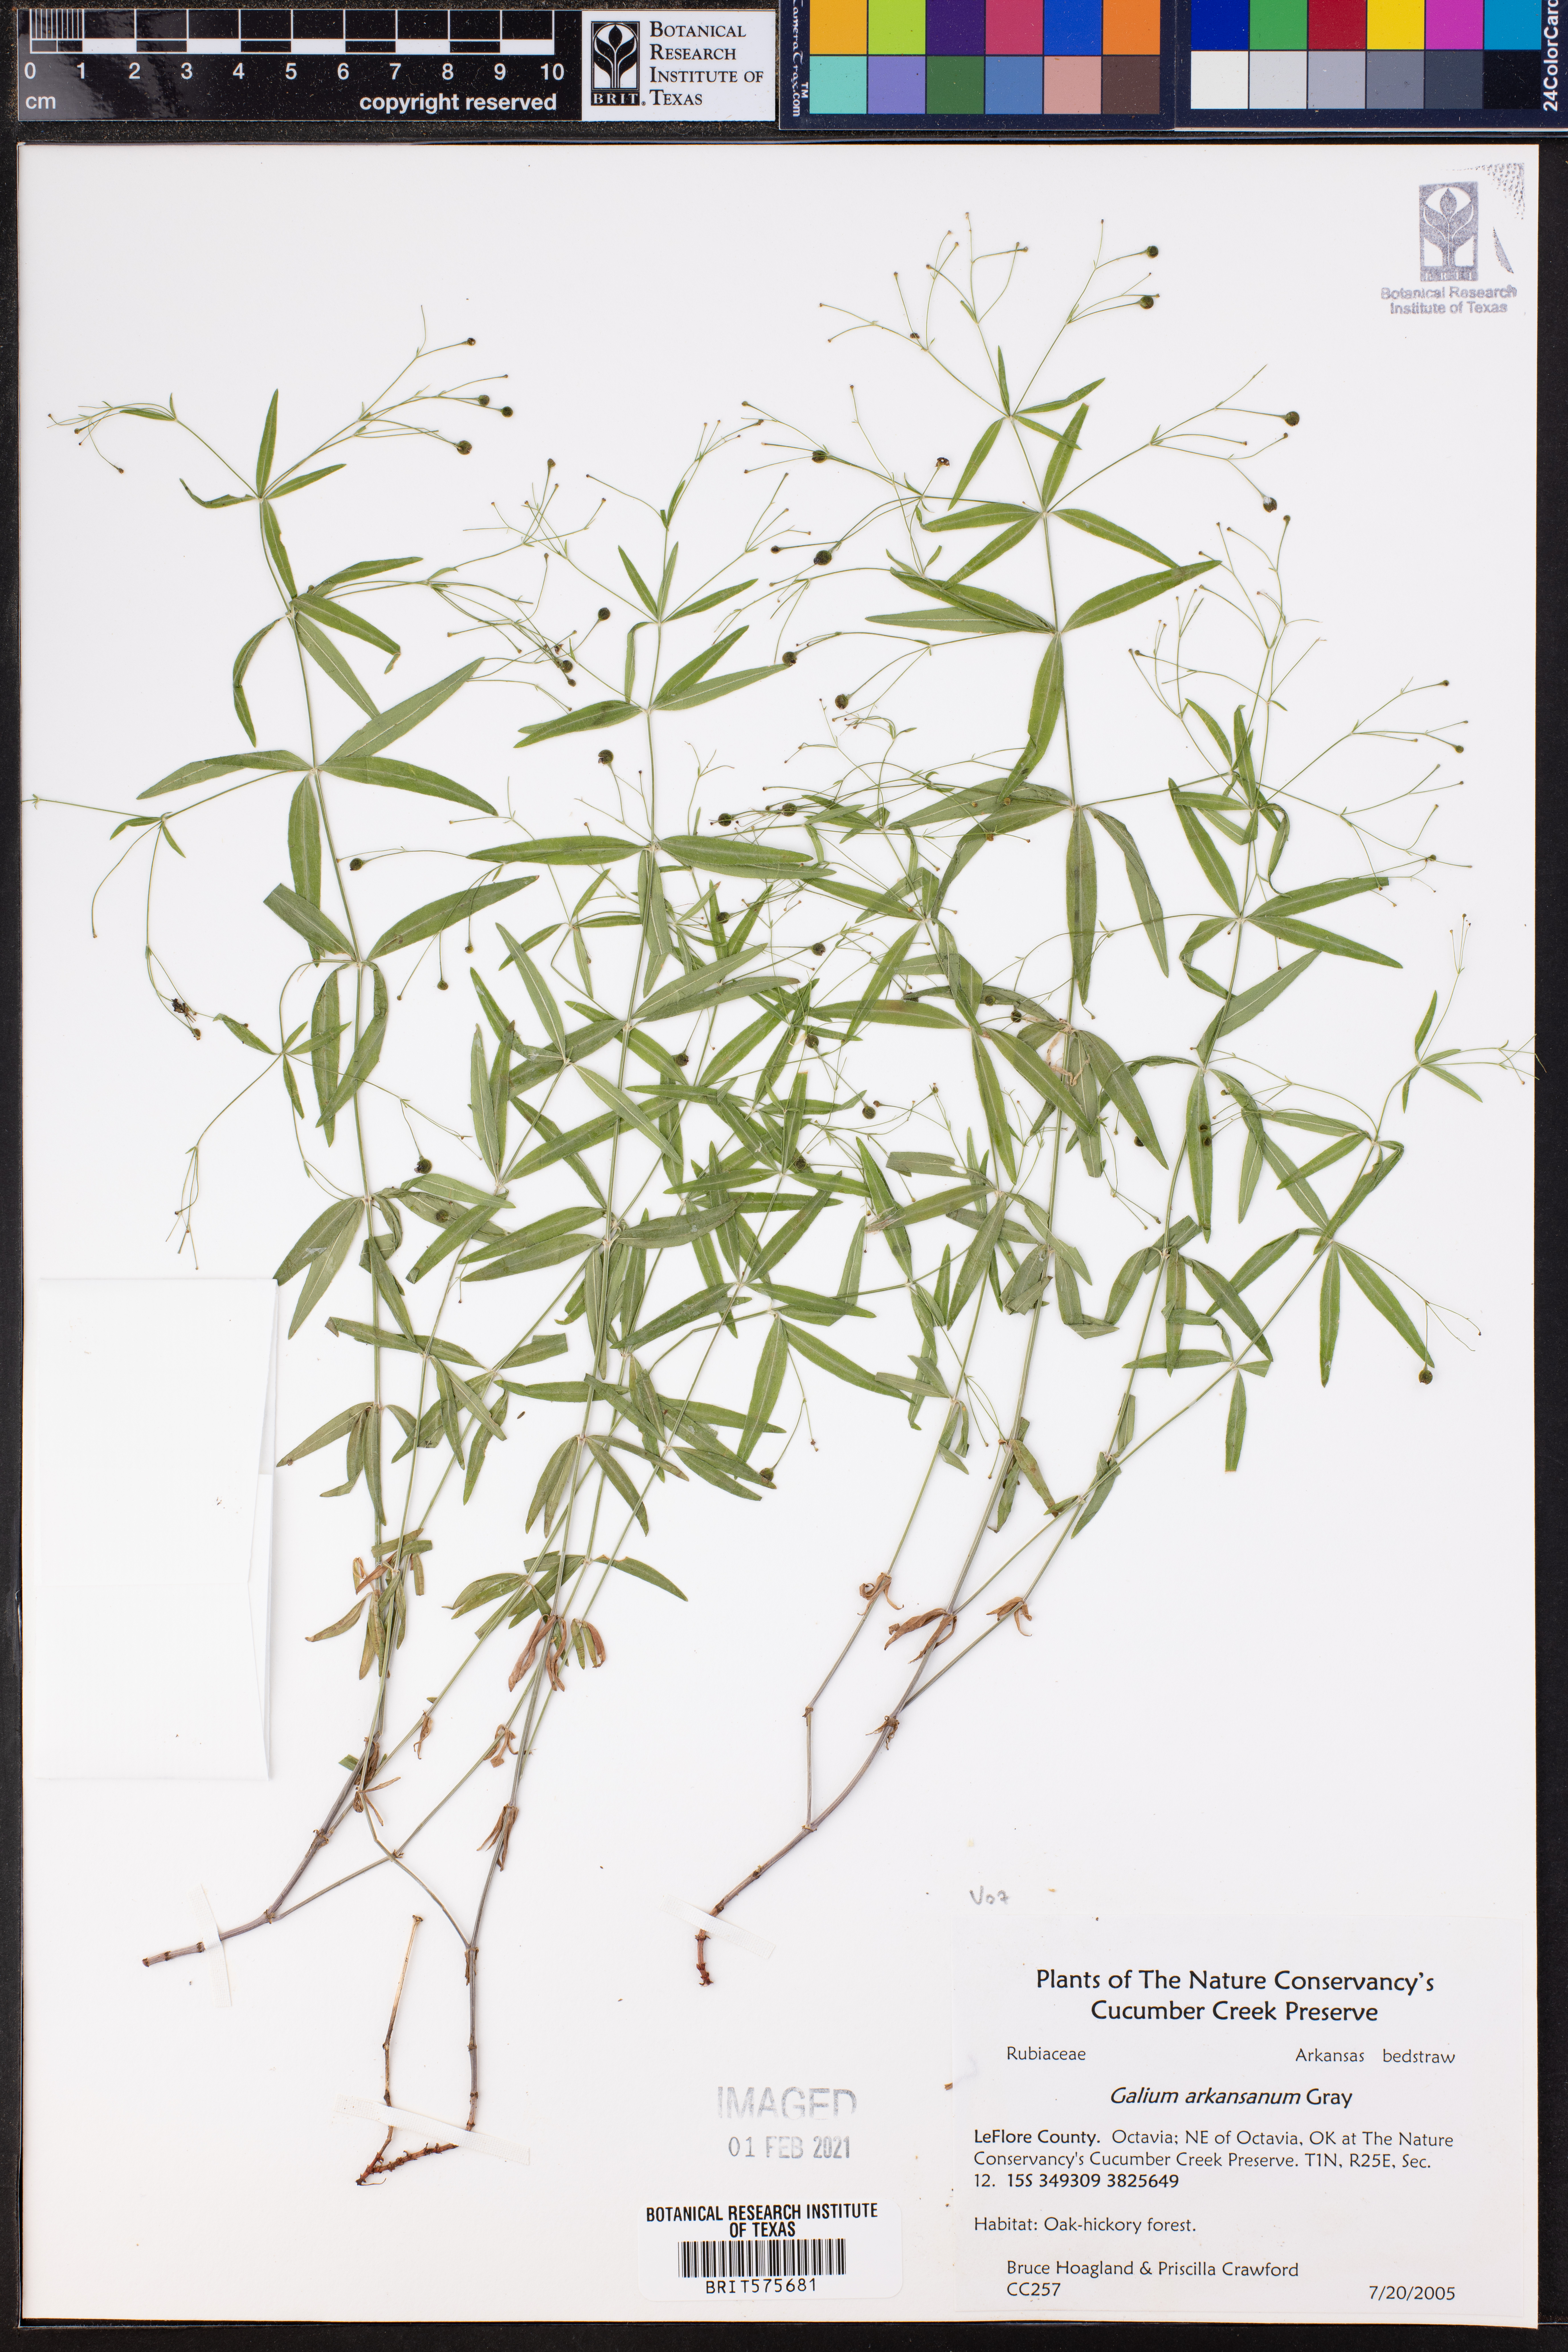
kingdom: Plantae
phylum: Tracheophyta
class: Magnoliopsida
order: Gentianales
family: Rubiaceae
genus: Galium
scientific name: Galium arkansanum
